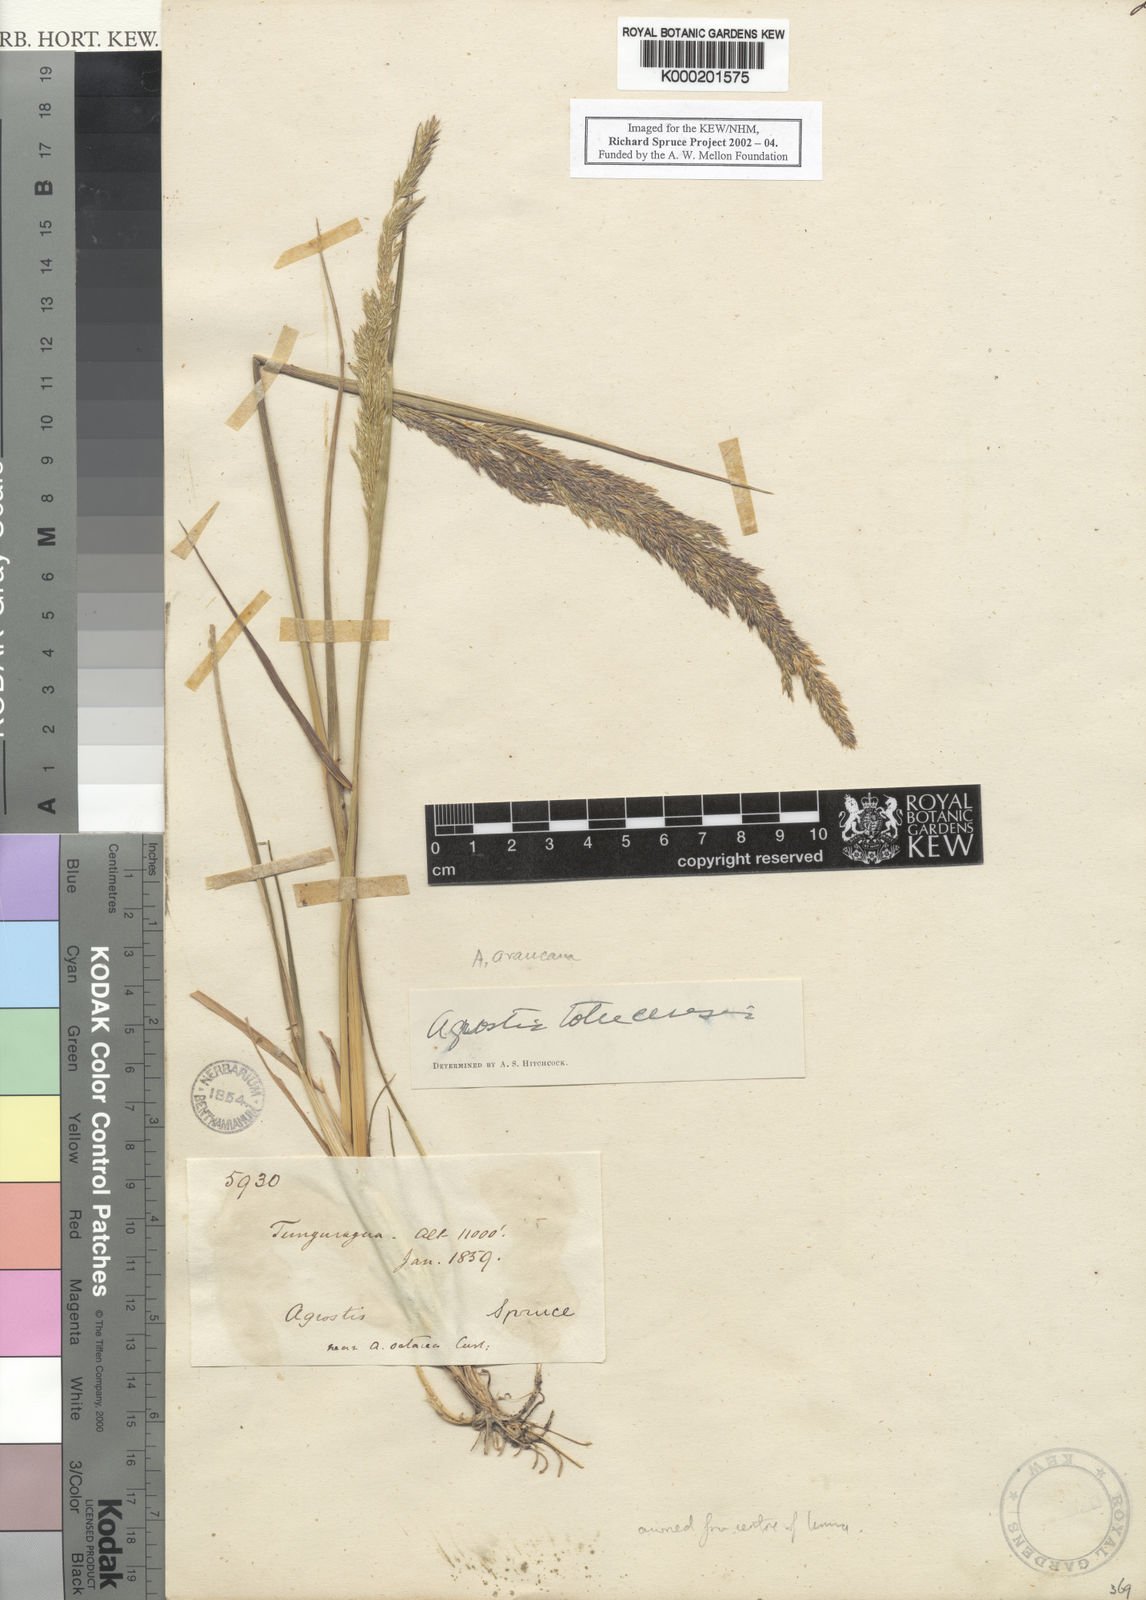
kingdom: Plantae
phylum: Tracheophyta
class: Liliopsida
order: Poales
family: Poaceae
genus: Agrostis
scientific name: Agrostis tolucensis
